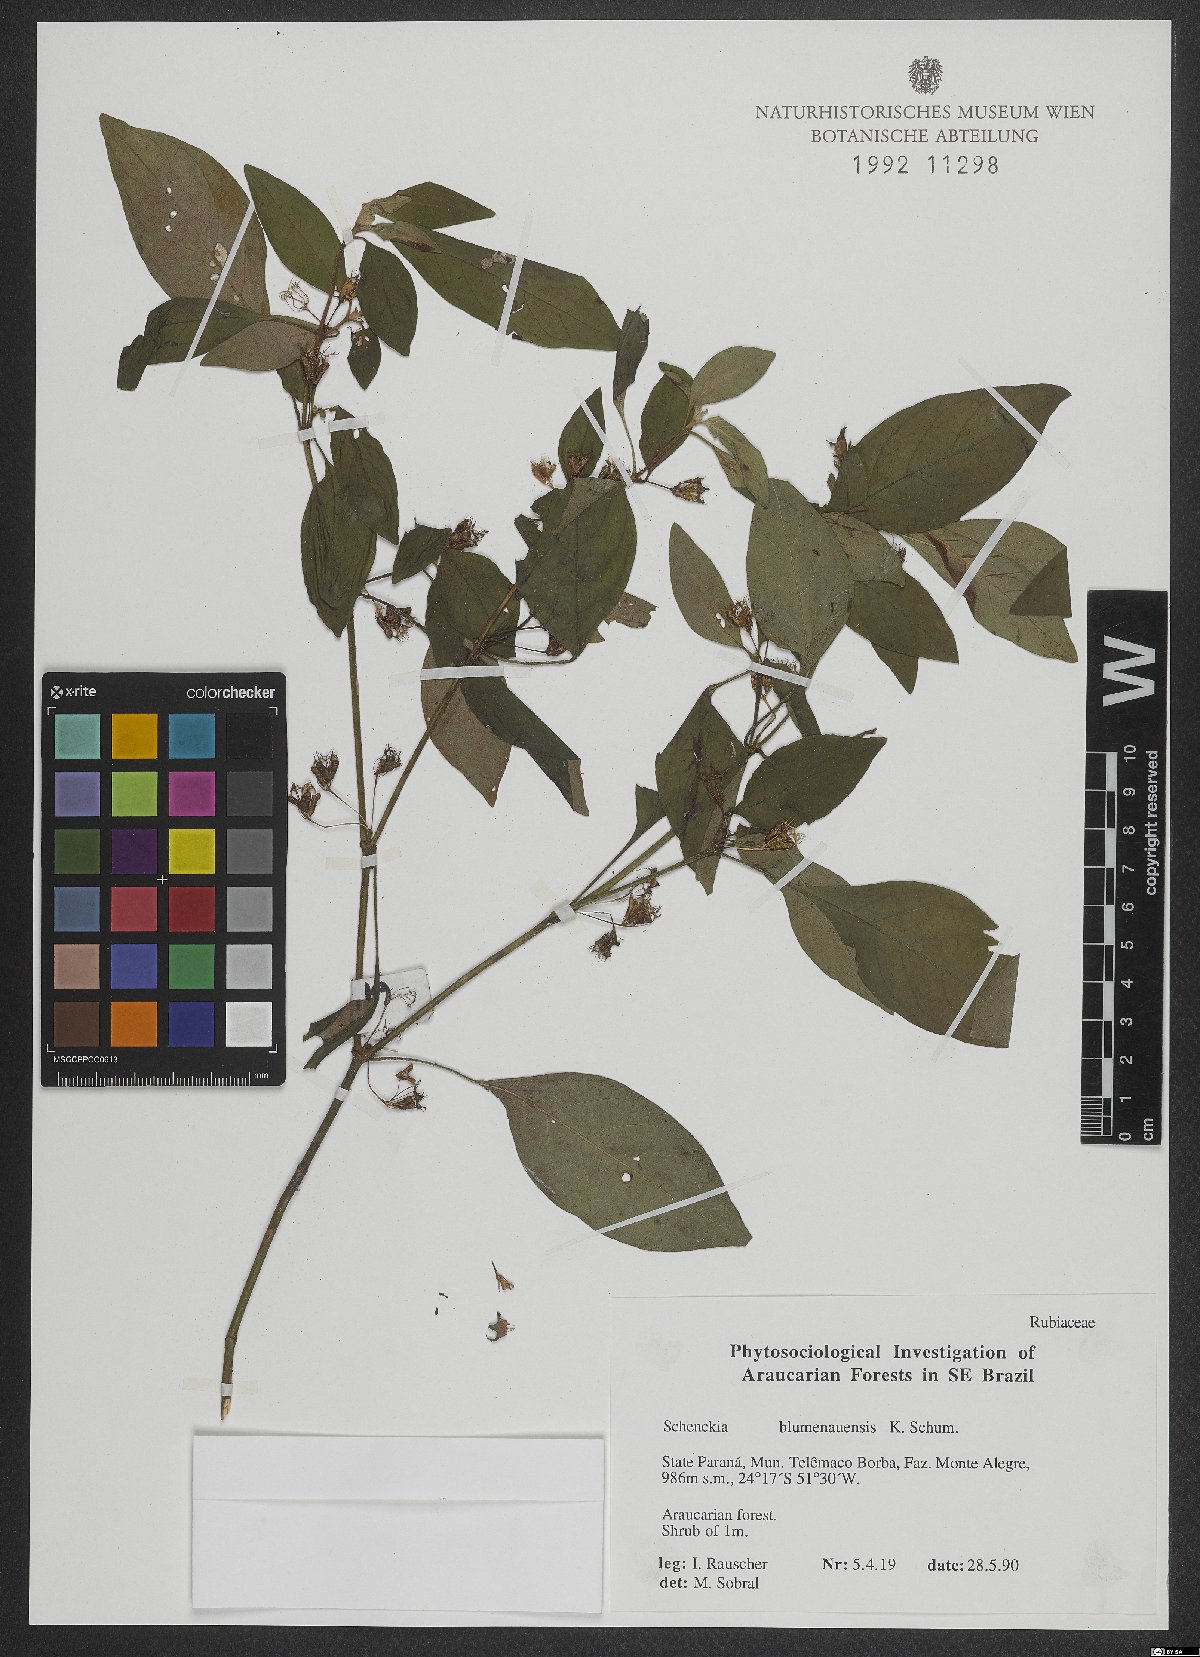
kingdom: Plantae
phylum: Tracheophyta
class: Magnoliopsida
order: Gentianales
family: Rubiaceae
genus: Deppea
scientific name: Deppea blumenaviensis
